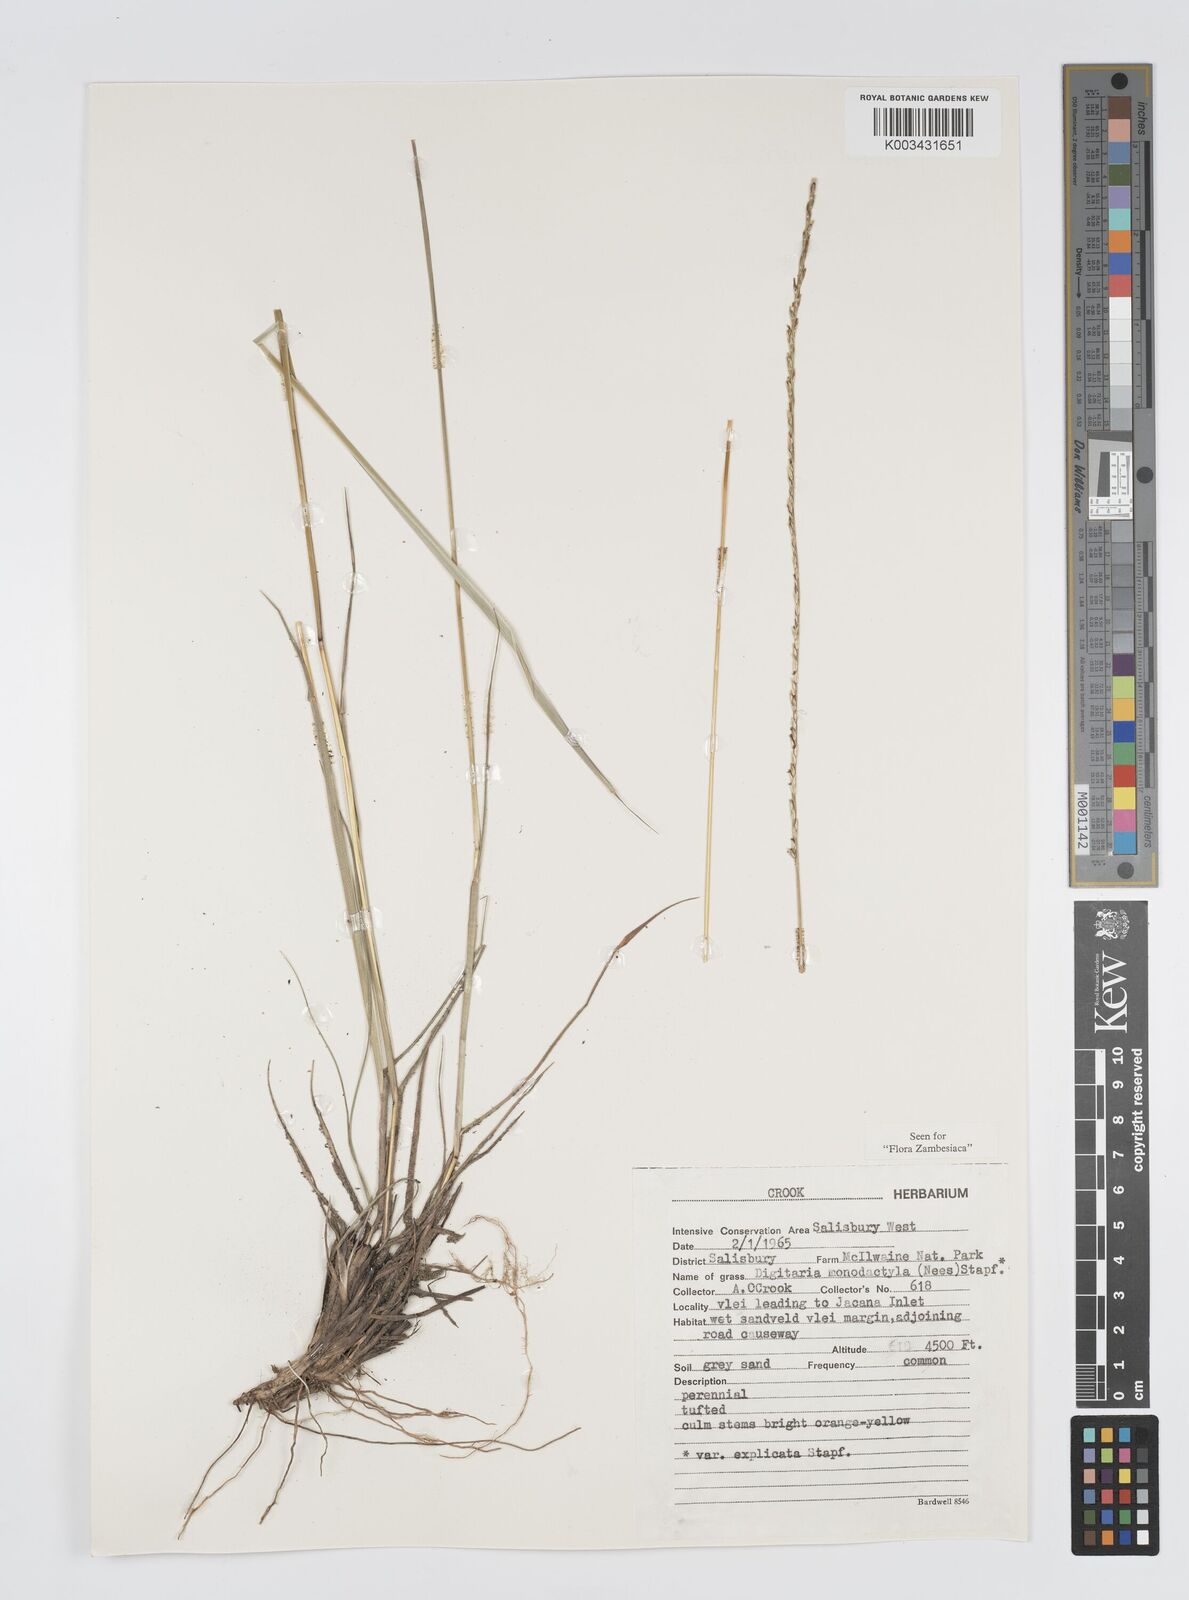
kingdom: Plantae
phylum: Tracheophyta
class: Liliopsida
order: Poales
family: Poaceae
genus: Digitaria
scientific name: Digitaria monodactyla
